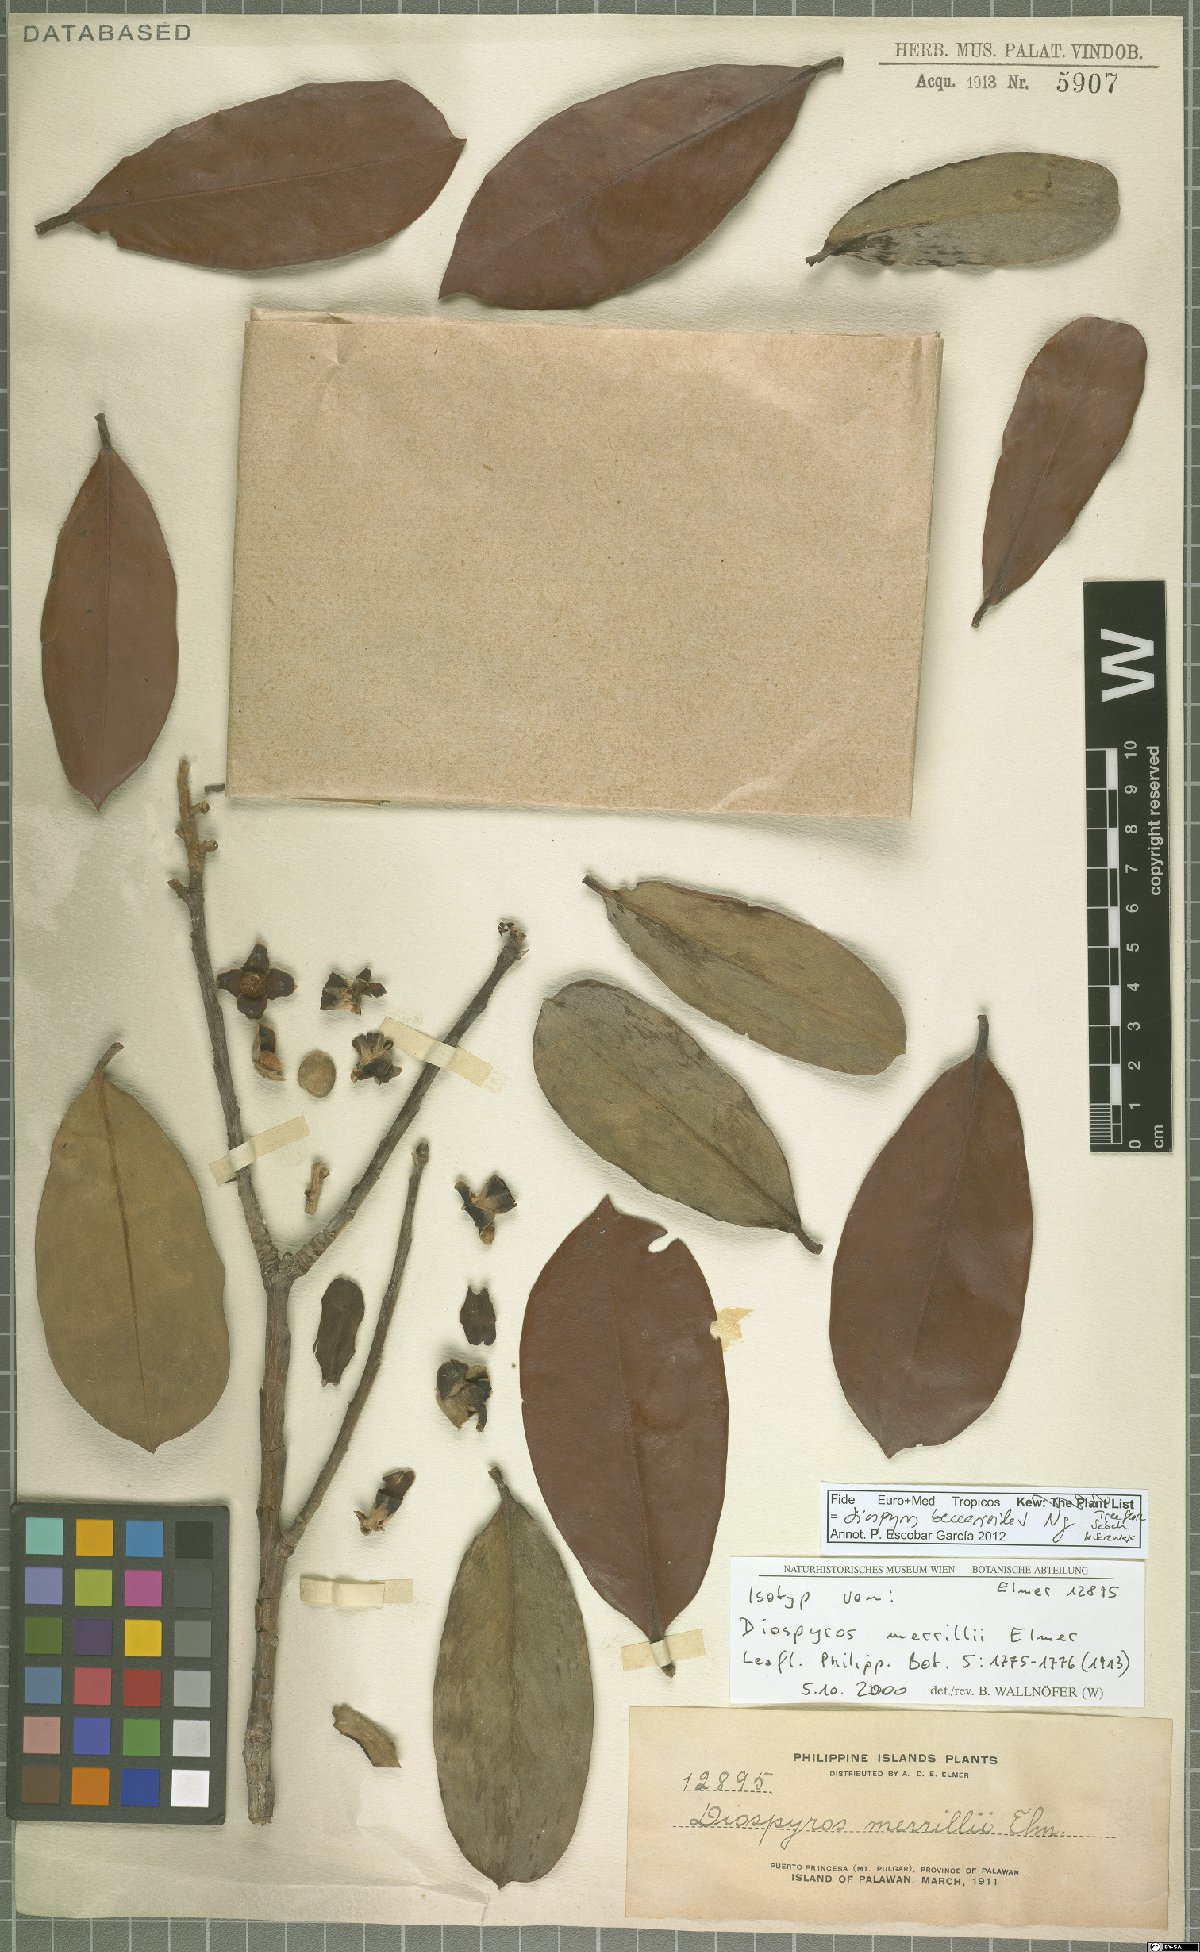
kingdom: Plantae
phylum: Tracheophyta
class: Magnoliopsida
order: Ericales
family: Ebenaceae
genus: Diospyros
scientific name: Diospyros beccarioides
